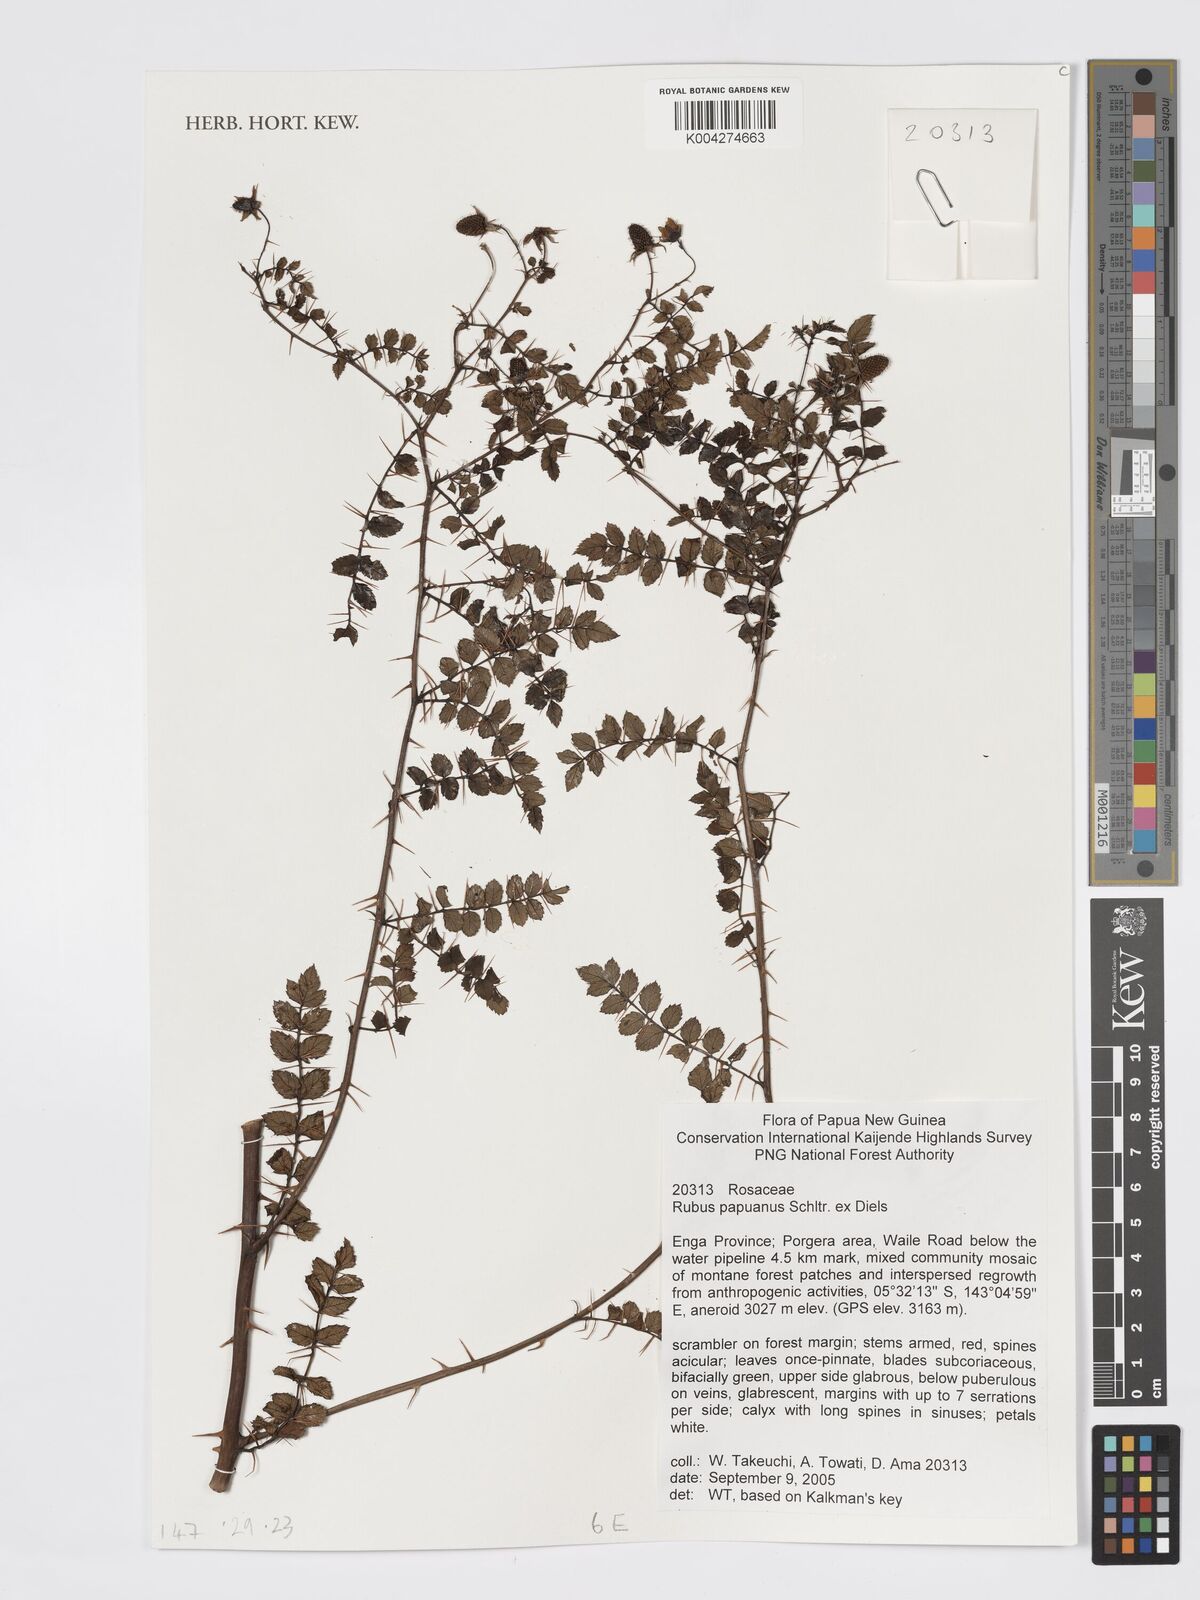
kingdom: Plantae
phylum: Tracheophyta
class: Magnoliopsida
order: Rosales
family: Rosaceae
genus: Rubus
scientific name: Rubus papuanus
